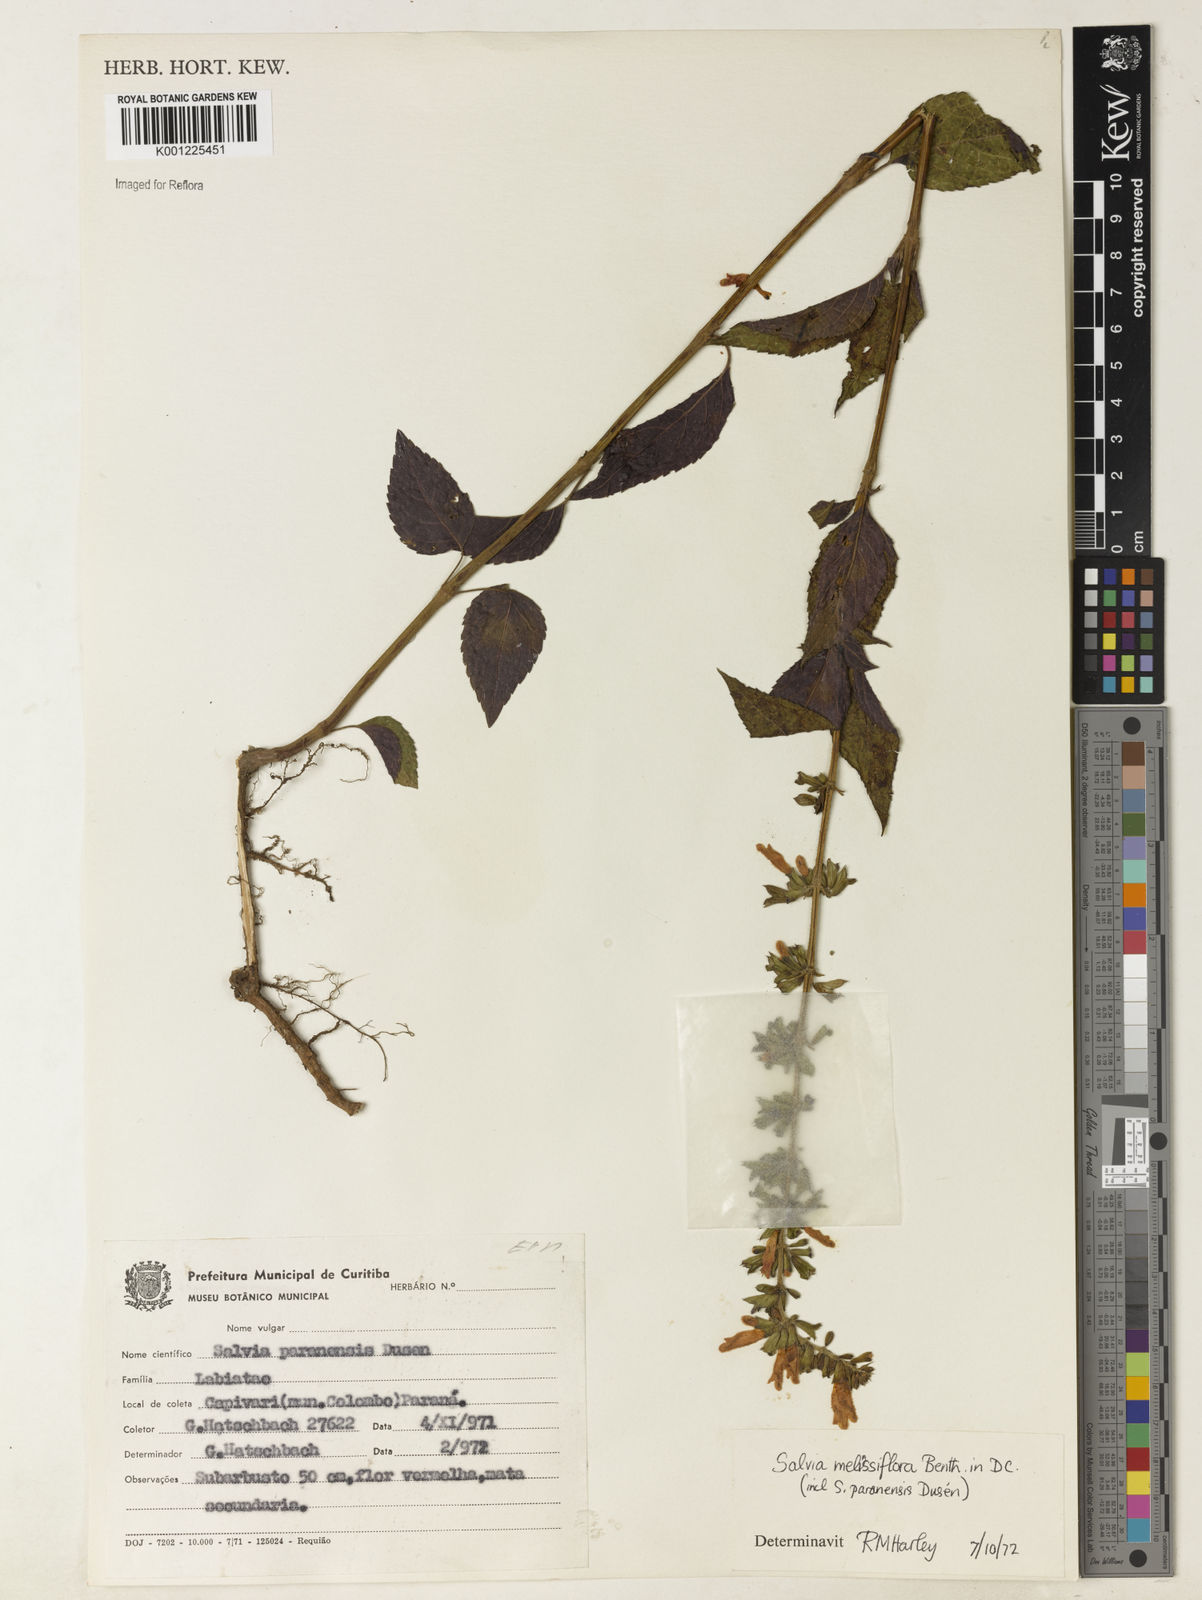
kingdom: Plantae
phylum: Tracheophyta
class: Magnoliopsida
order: Lamiales
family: Lamiaceae
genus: Salvia
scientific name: Salvia melissiflora
